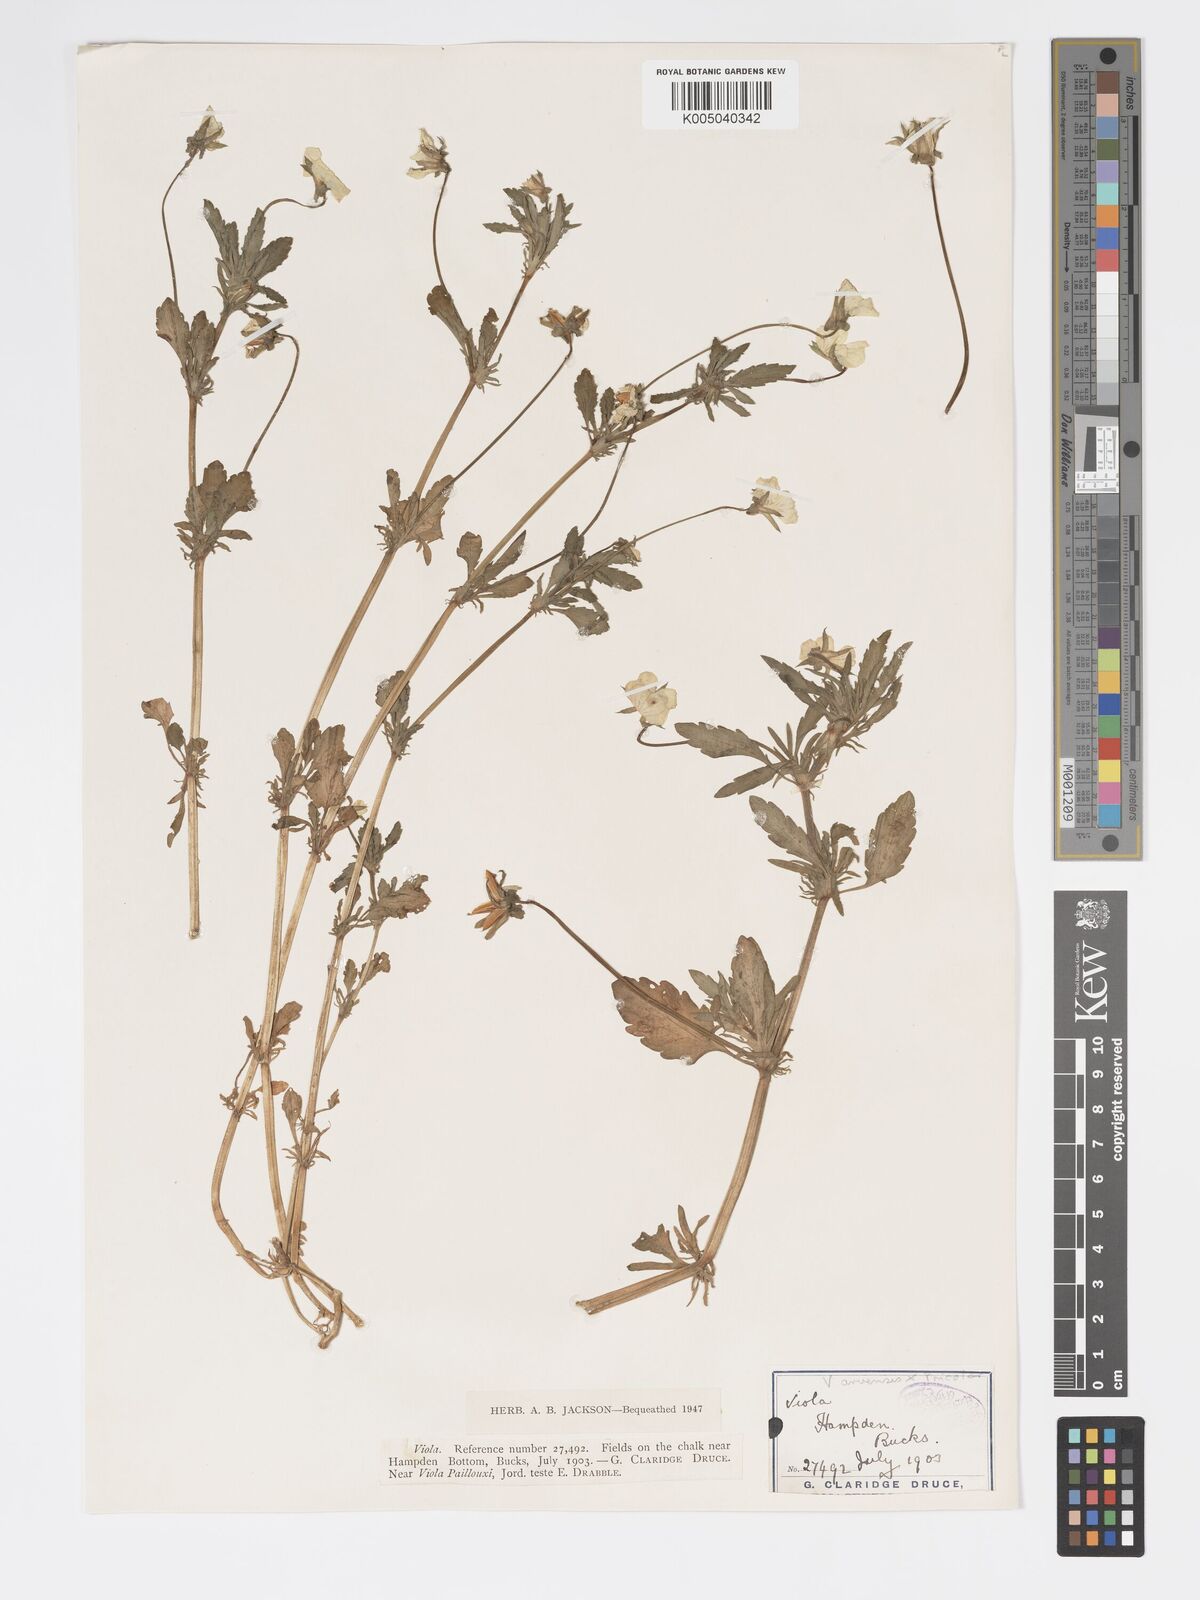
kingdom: Plantae
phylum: Tracheophyta
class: Magnoliopsida
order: Malpighiales
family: Violaceae
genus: Viola
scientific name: Viola arvensis
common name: Field pansy
